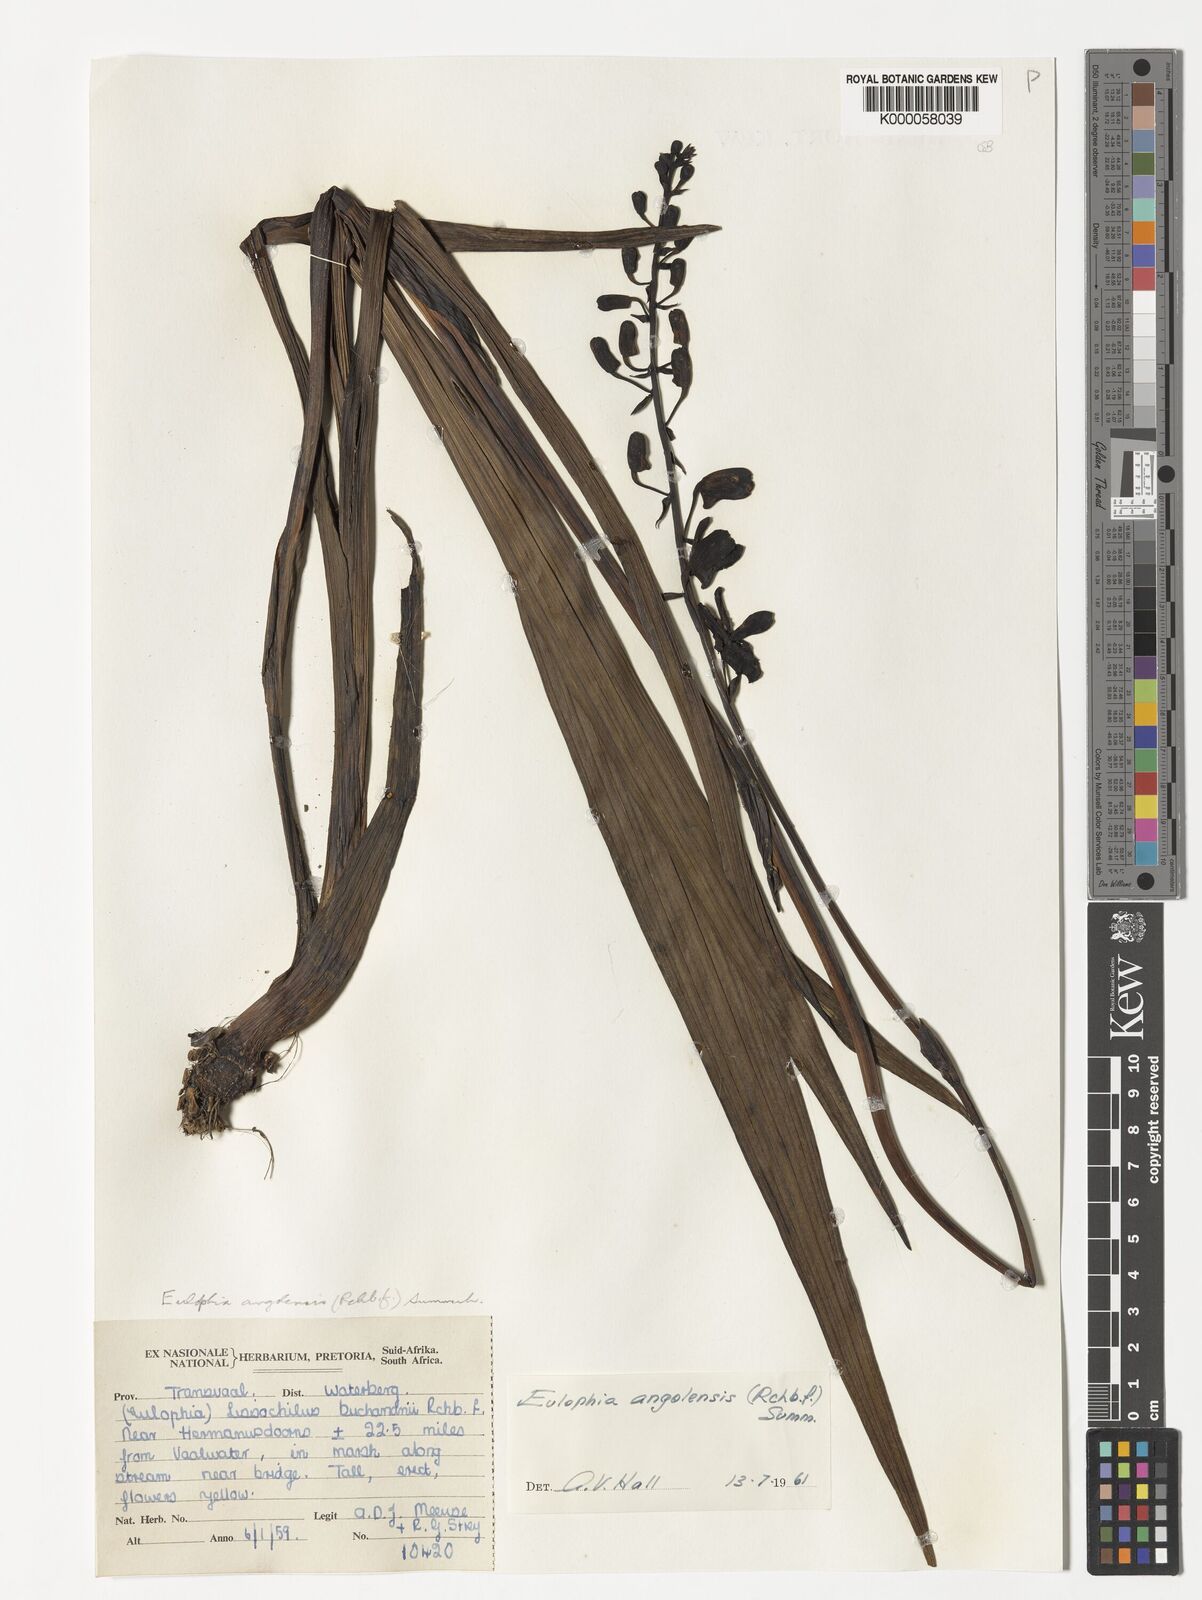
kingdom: Plantae
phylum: Tracheophyta
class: Liliopsida
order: Asparagales
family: Orchidaceae
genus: Eulophia
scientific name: Eulophia angolensis
